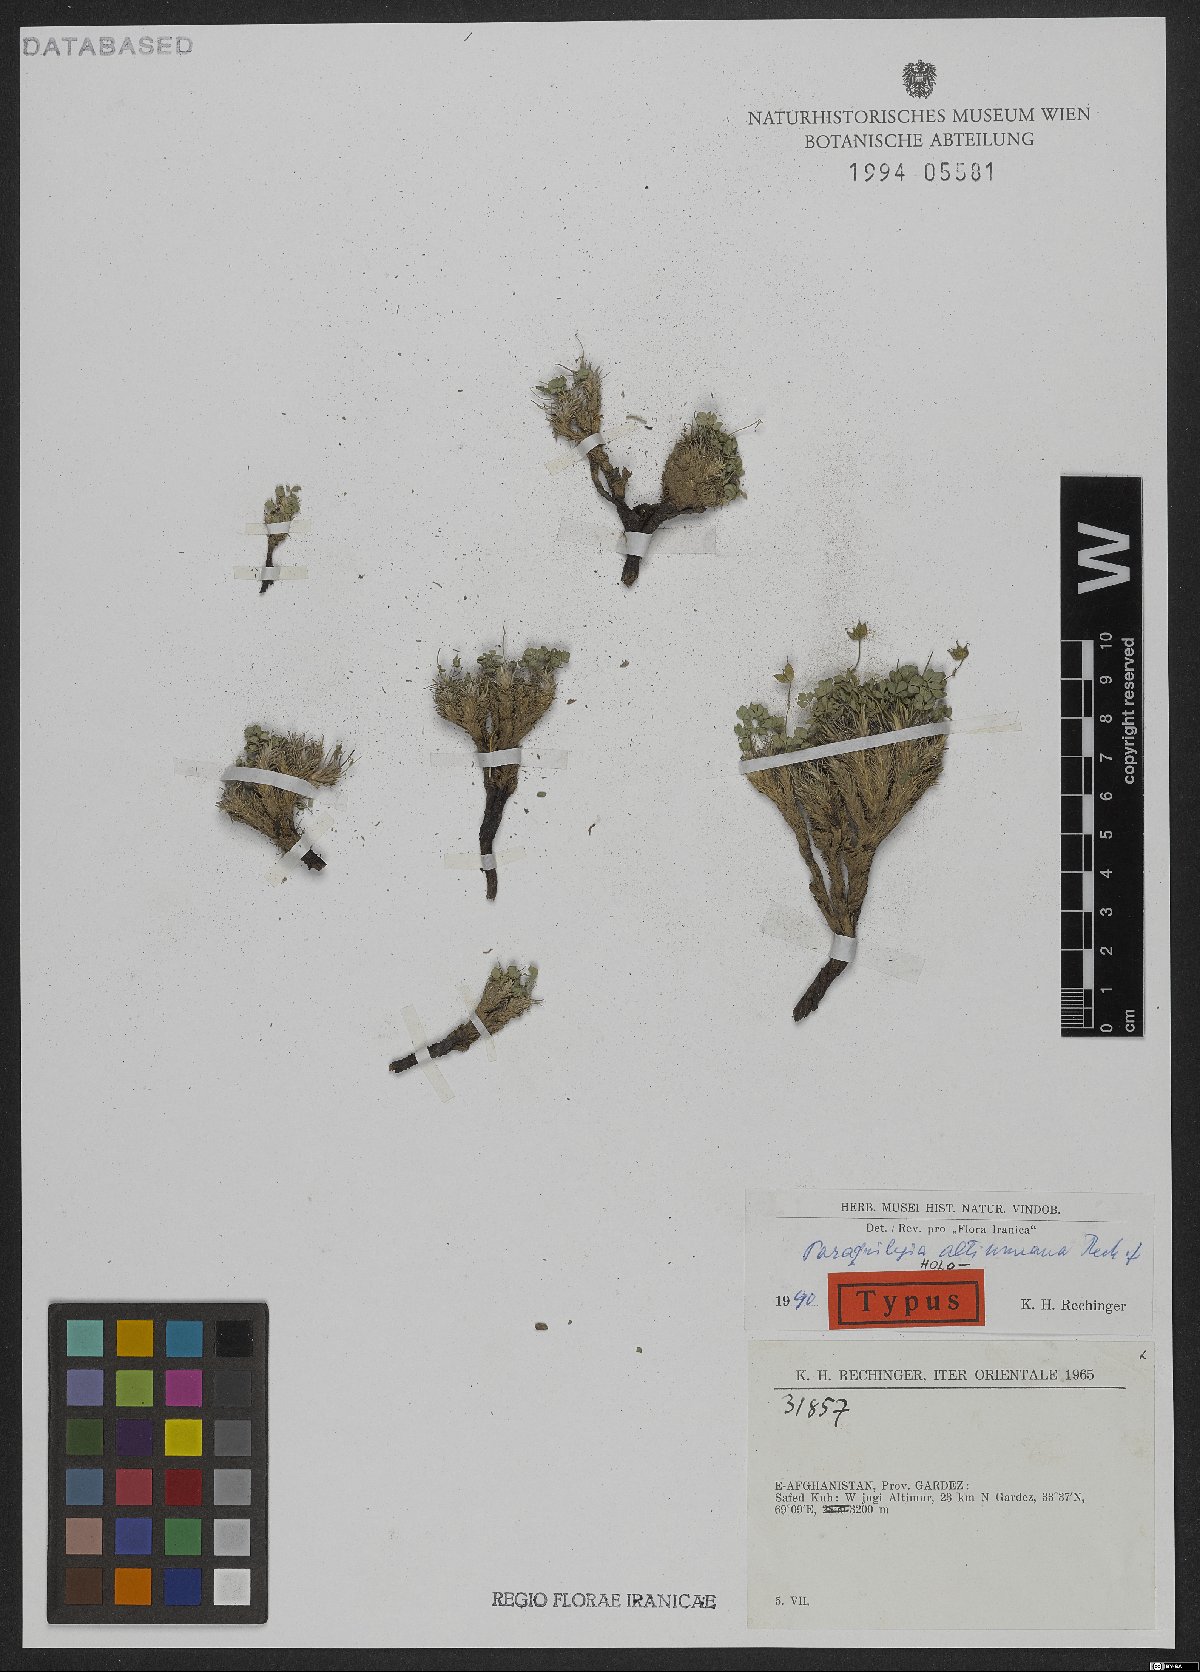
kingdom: Plantae
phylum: Tracheophyta
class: Magnoliopsida
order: Ranunculales
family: Ranunculaceae
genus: Paraquilegia
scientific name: Paraquilegia altimurana
